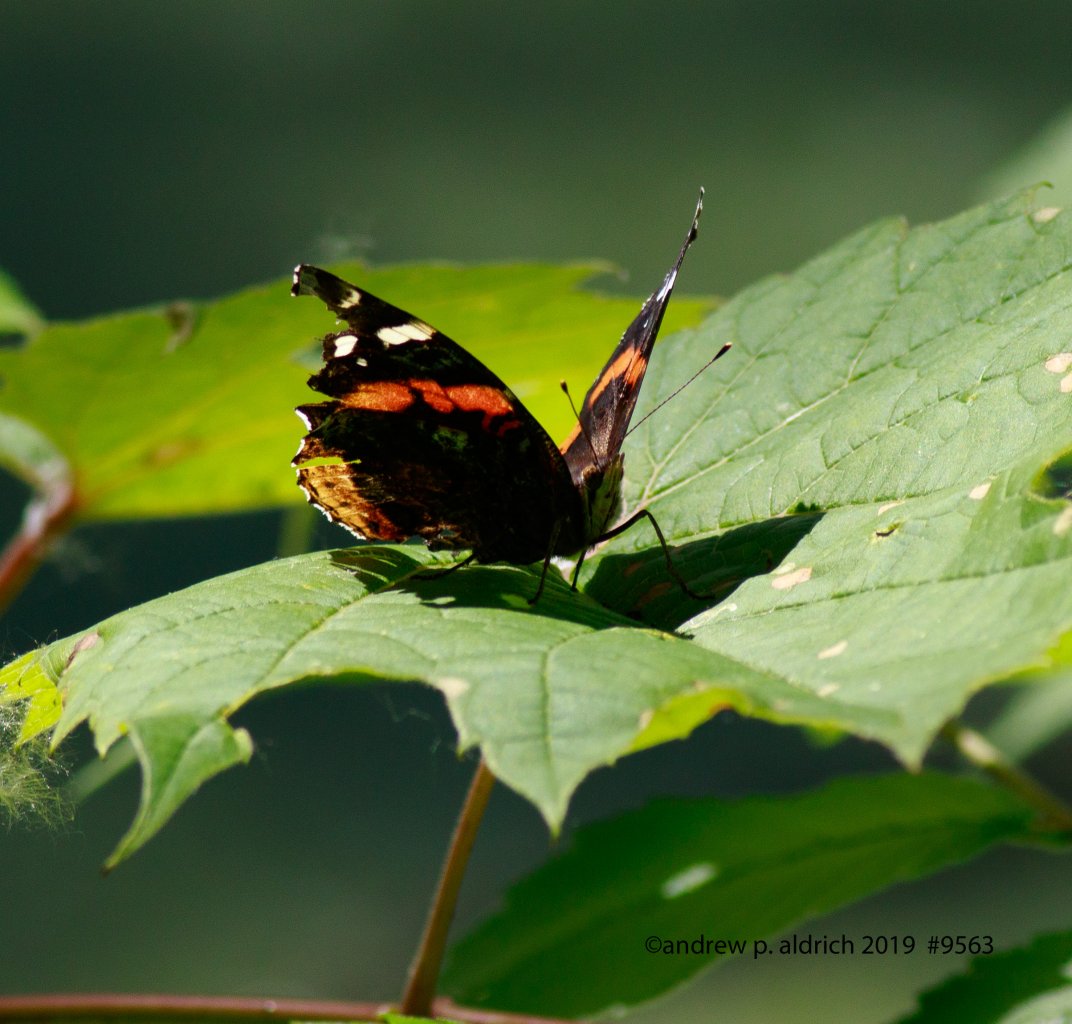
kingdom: Animalia
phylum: Arthropoda
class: Insecta
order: Lepidoptera
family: Nymphalidae
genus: Vanessa
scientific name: Vanessa atalanta
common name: Red Admiral
